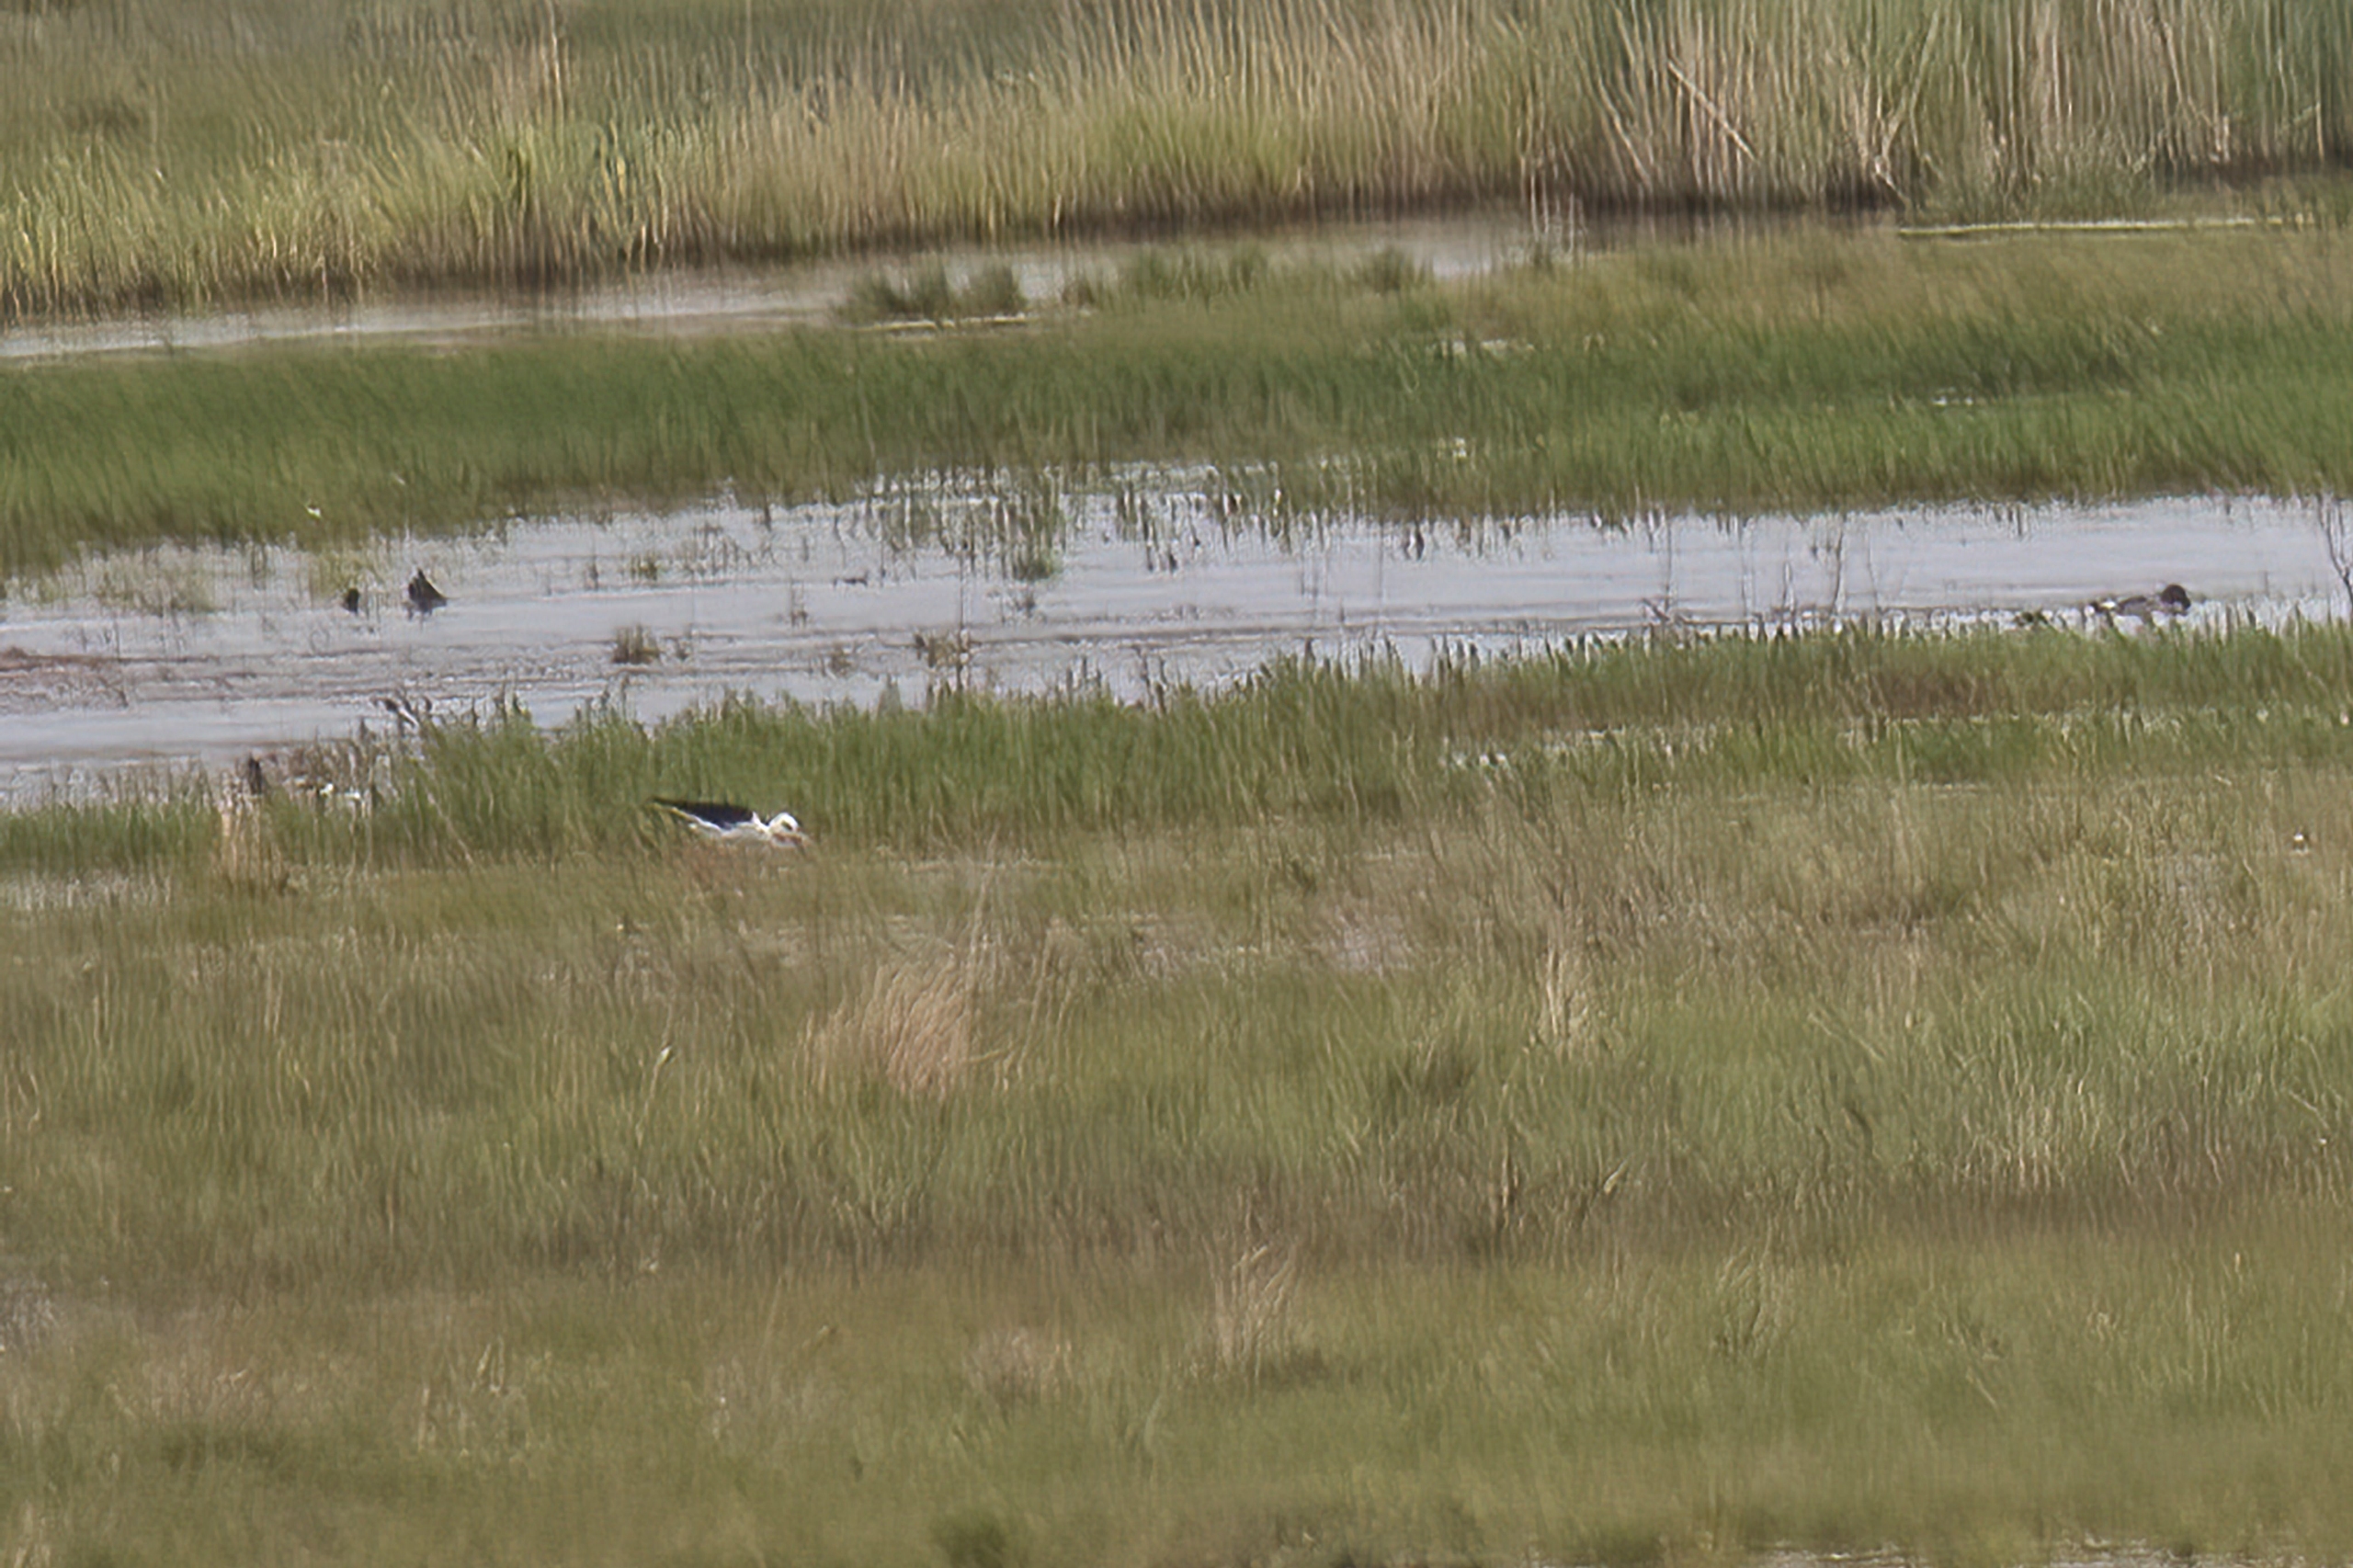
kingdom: Animalia
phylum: Chordata
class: Aves
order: Charadriiformes
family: Recurvirostridae
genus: Himantopus
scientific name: Himantopus himantopus
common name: Stylteløber
